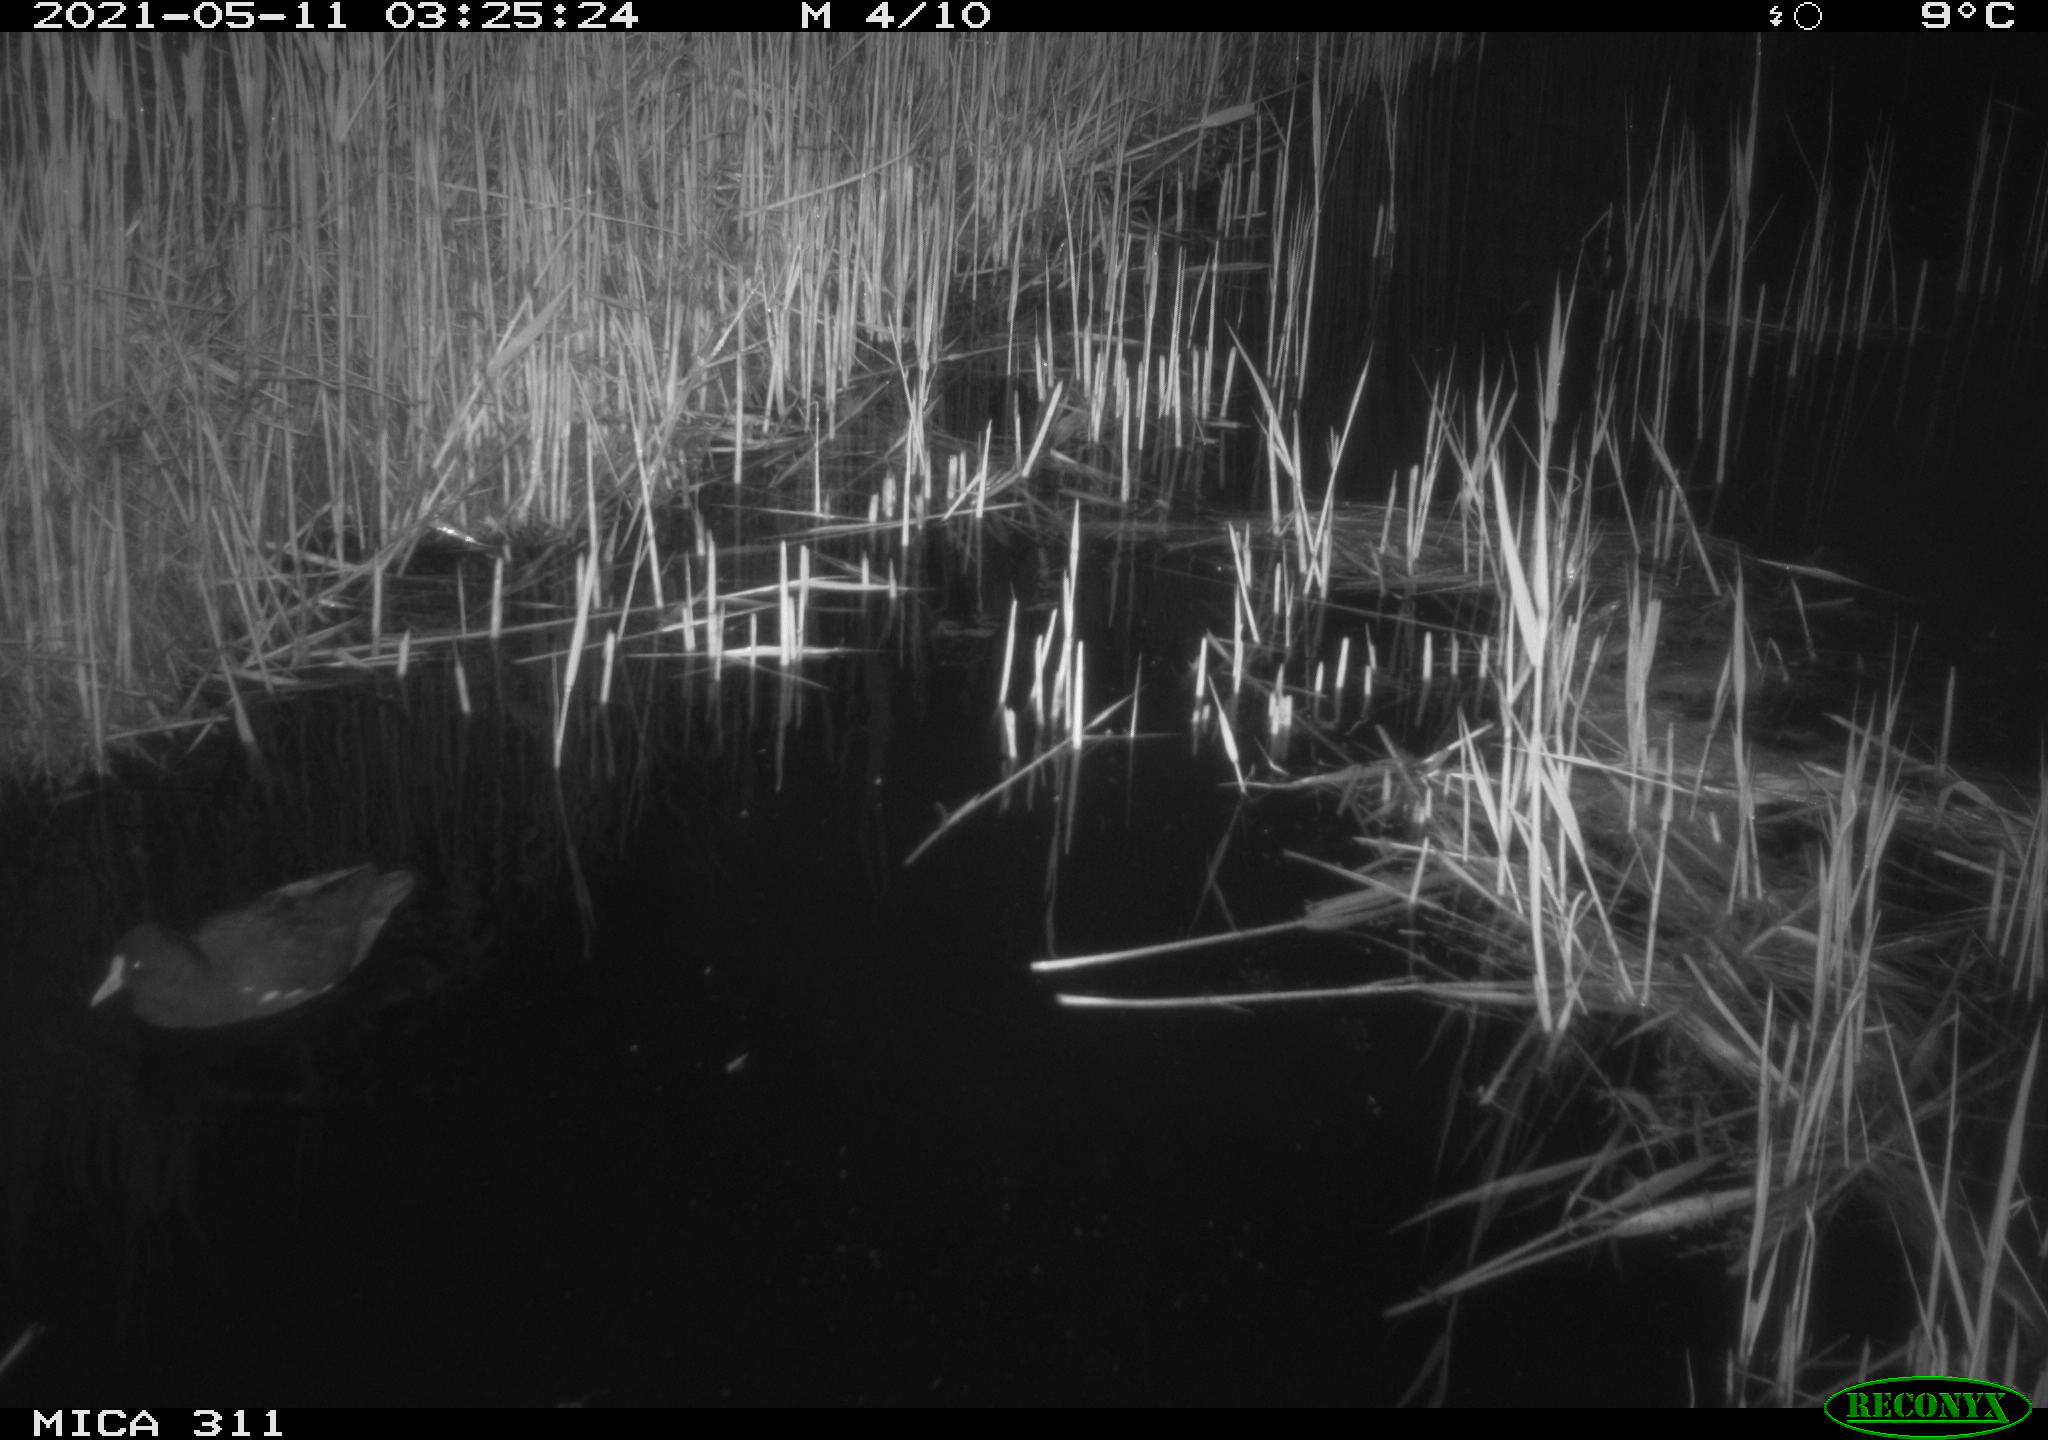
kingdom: Animalia
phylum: Chordata
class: Aves
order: Gruiformes
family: Rallidae
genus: Gallinula
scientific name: Gallinula chloropus
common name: Common moorhen
